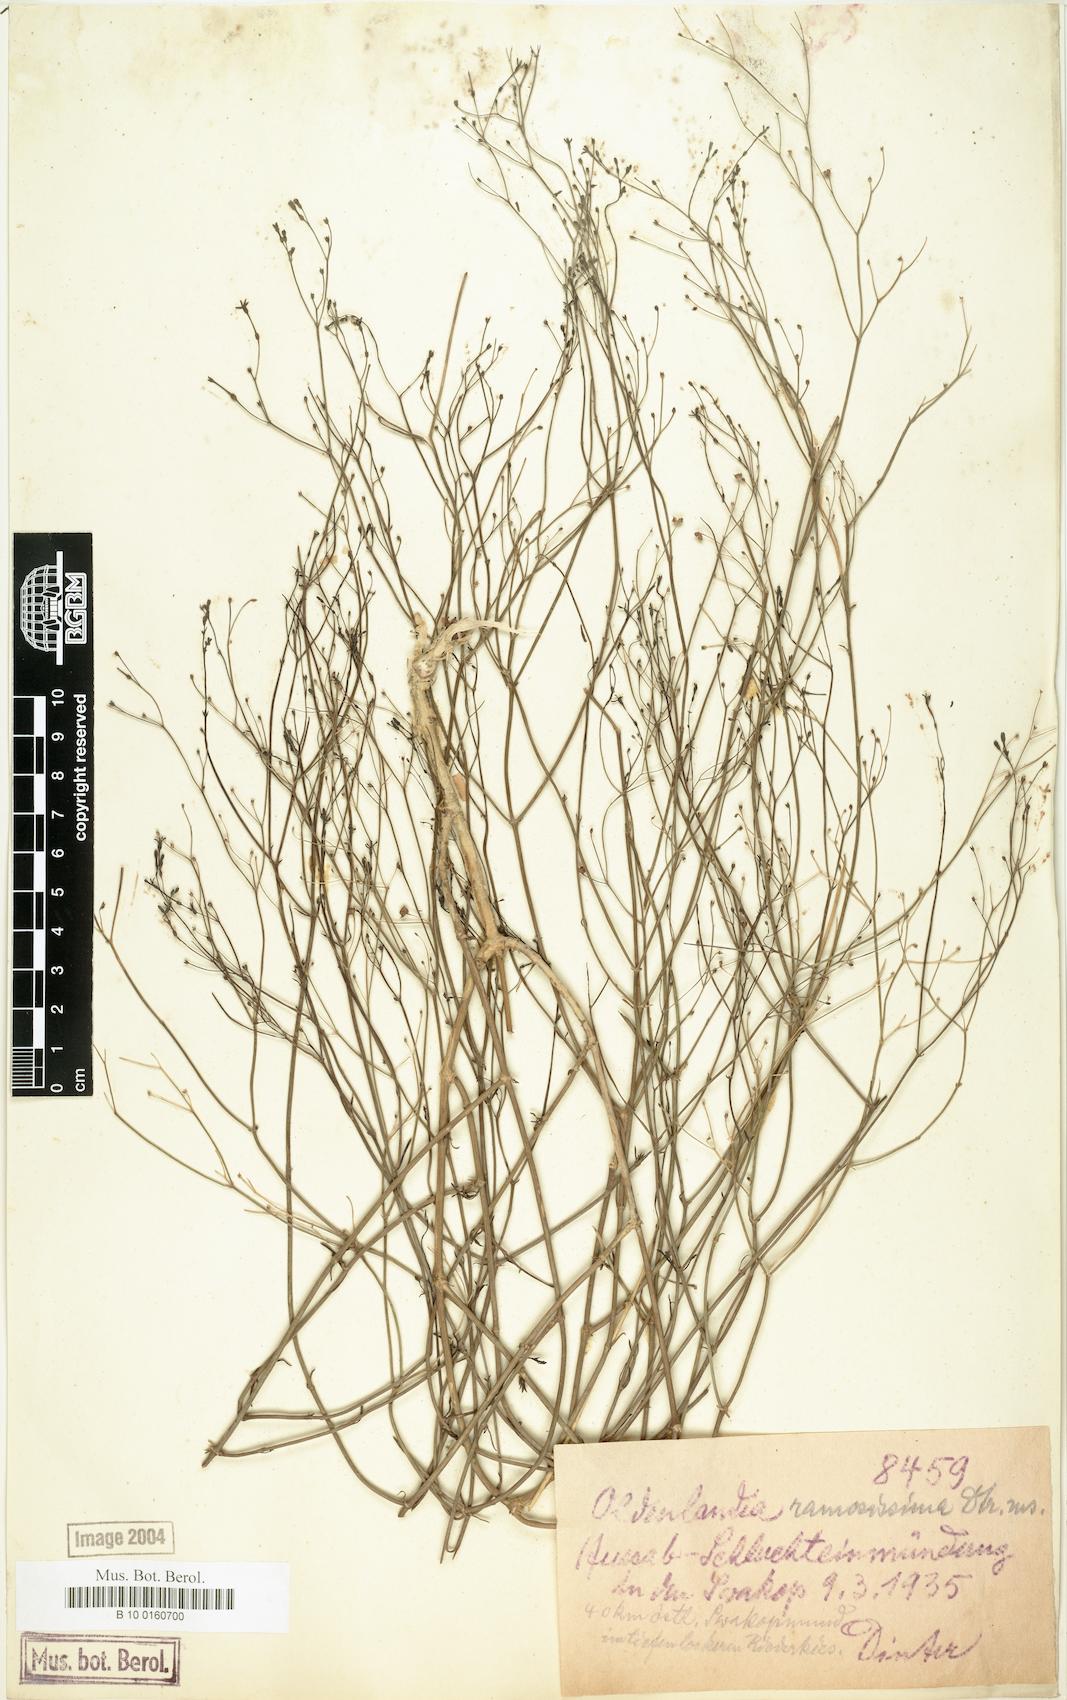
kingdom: Plantae
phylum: Tracheophyta
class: Magnoliopsida
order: Gentianales
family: Rubiaceae
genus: Oldenlandia
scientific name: Oldenlandia ramosissima
